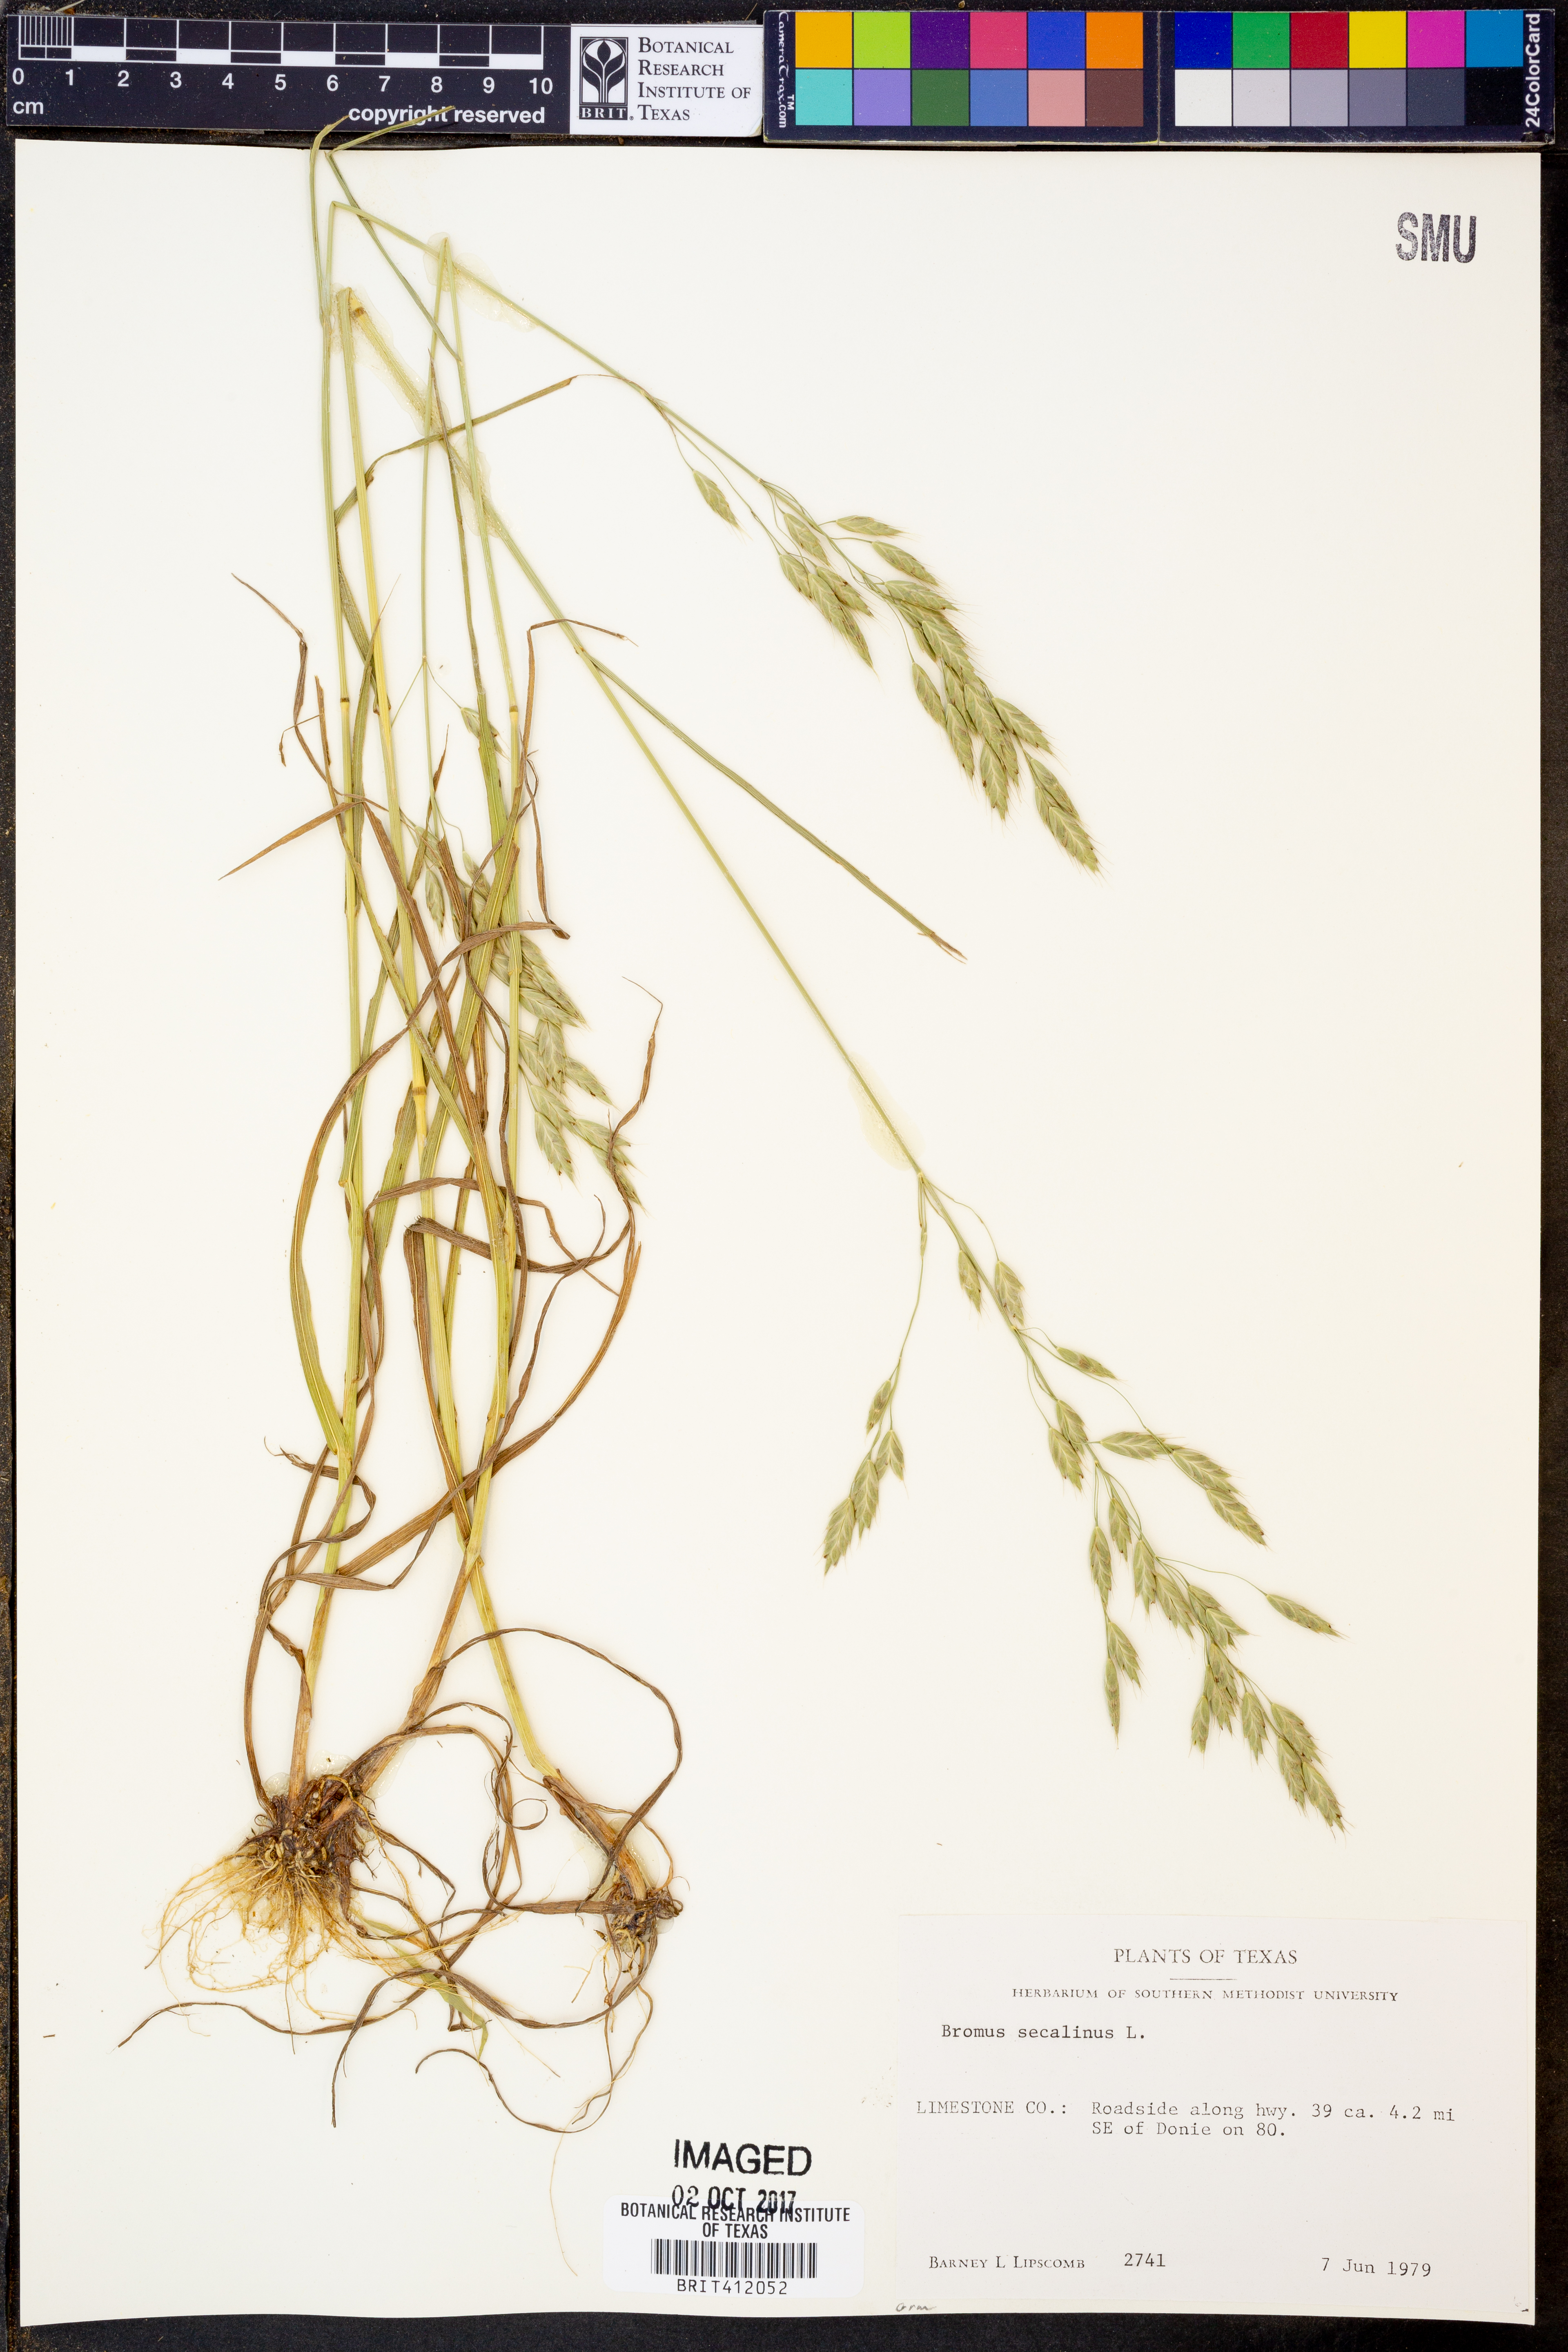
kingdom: Plantae
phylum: Tracheophyta
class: Liliopsida
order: Poales
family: Poaceae
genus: Bromus
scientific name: Bromus secalinus
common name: Rye brome
